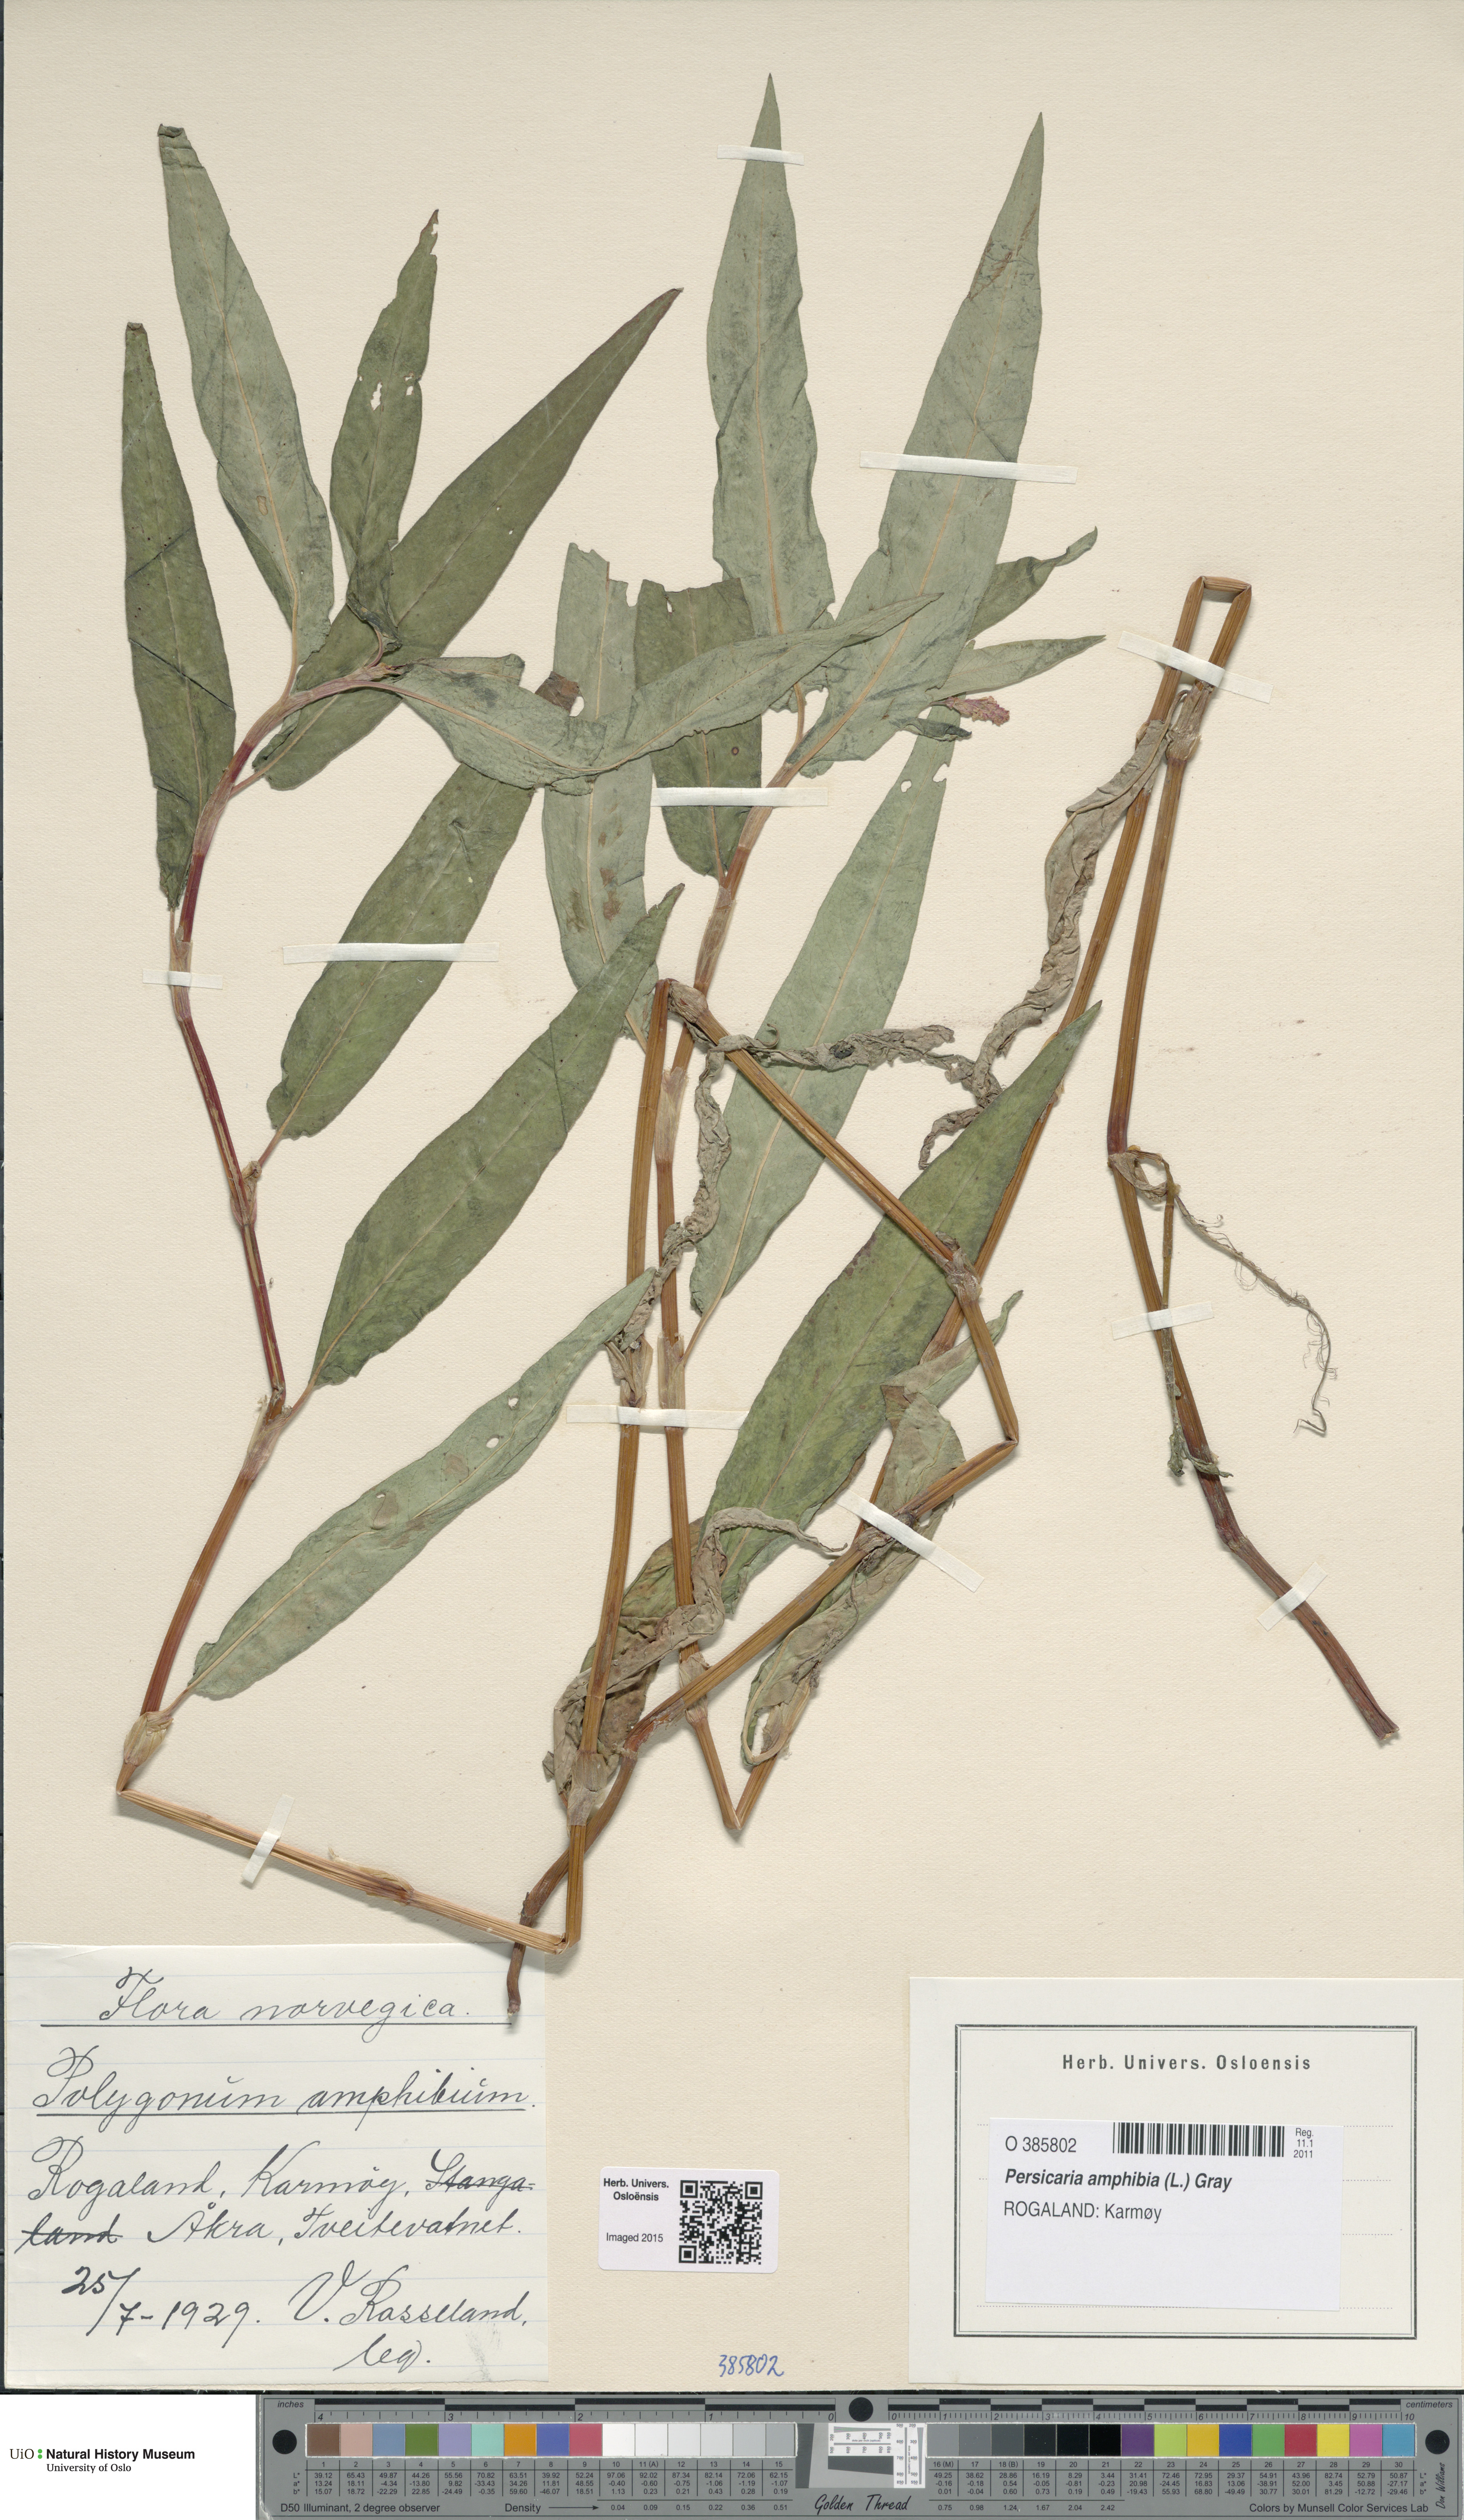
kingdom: Plantae
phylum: Tracheophyta
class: Magnoliopsida
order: Caryophyllales
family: Polygonaceae
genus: Persicaria
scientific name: Persicaria amphibia
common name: Amphibious bistort
